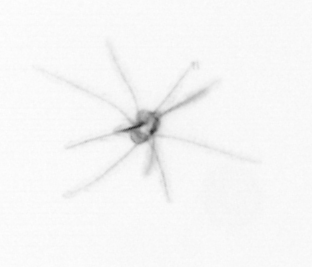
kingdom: Animalia
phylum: Echinodermata
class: Crinoidea
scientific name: Crinoidea
